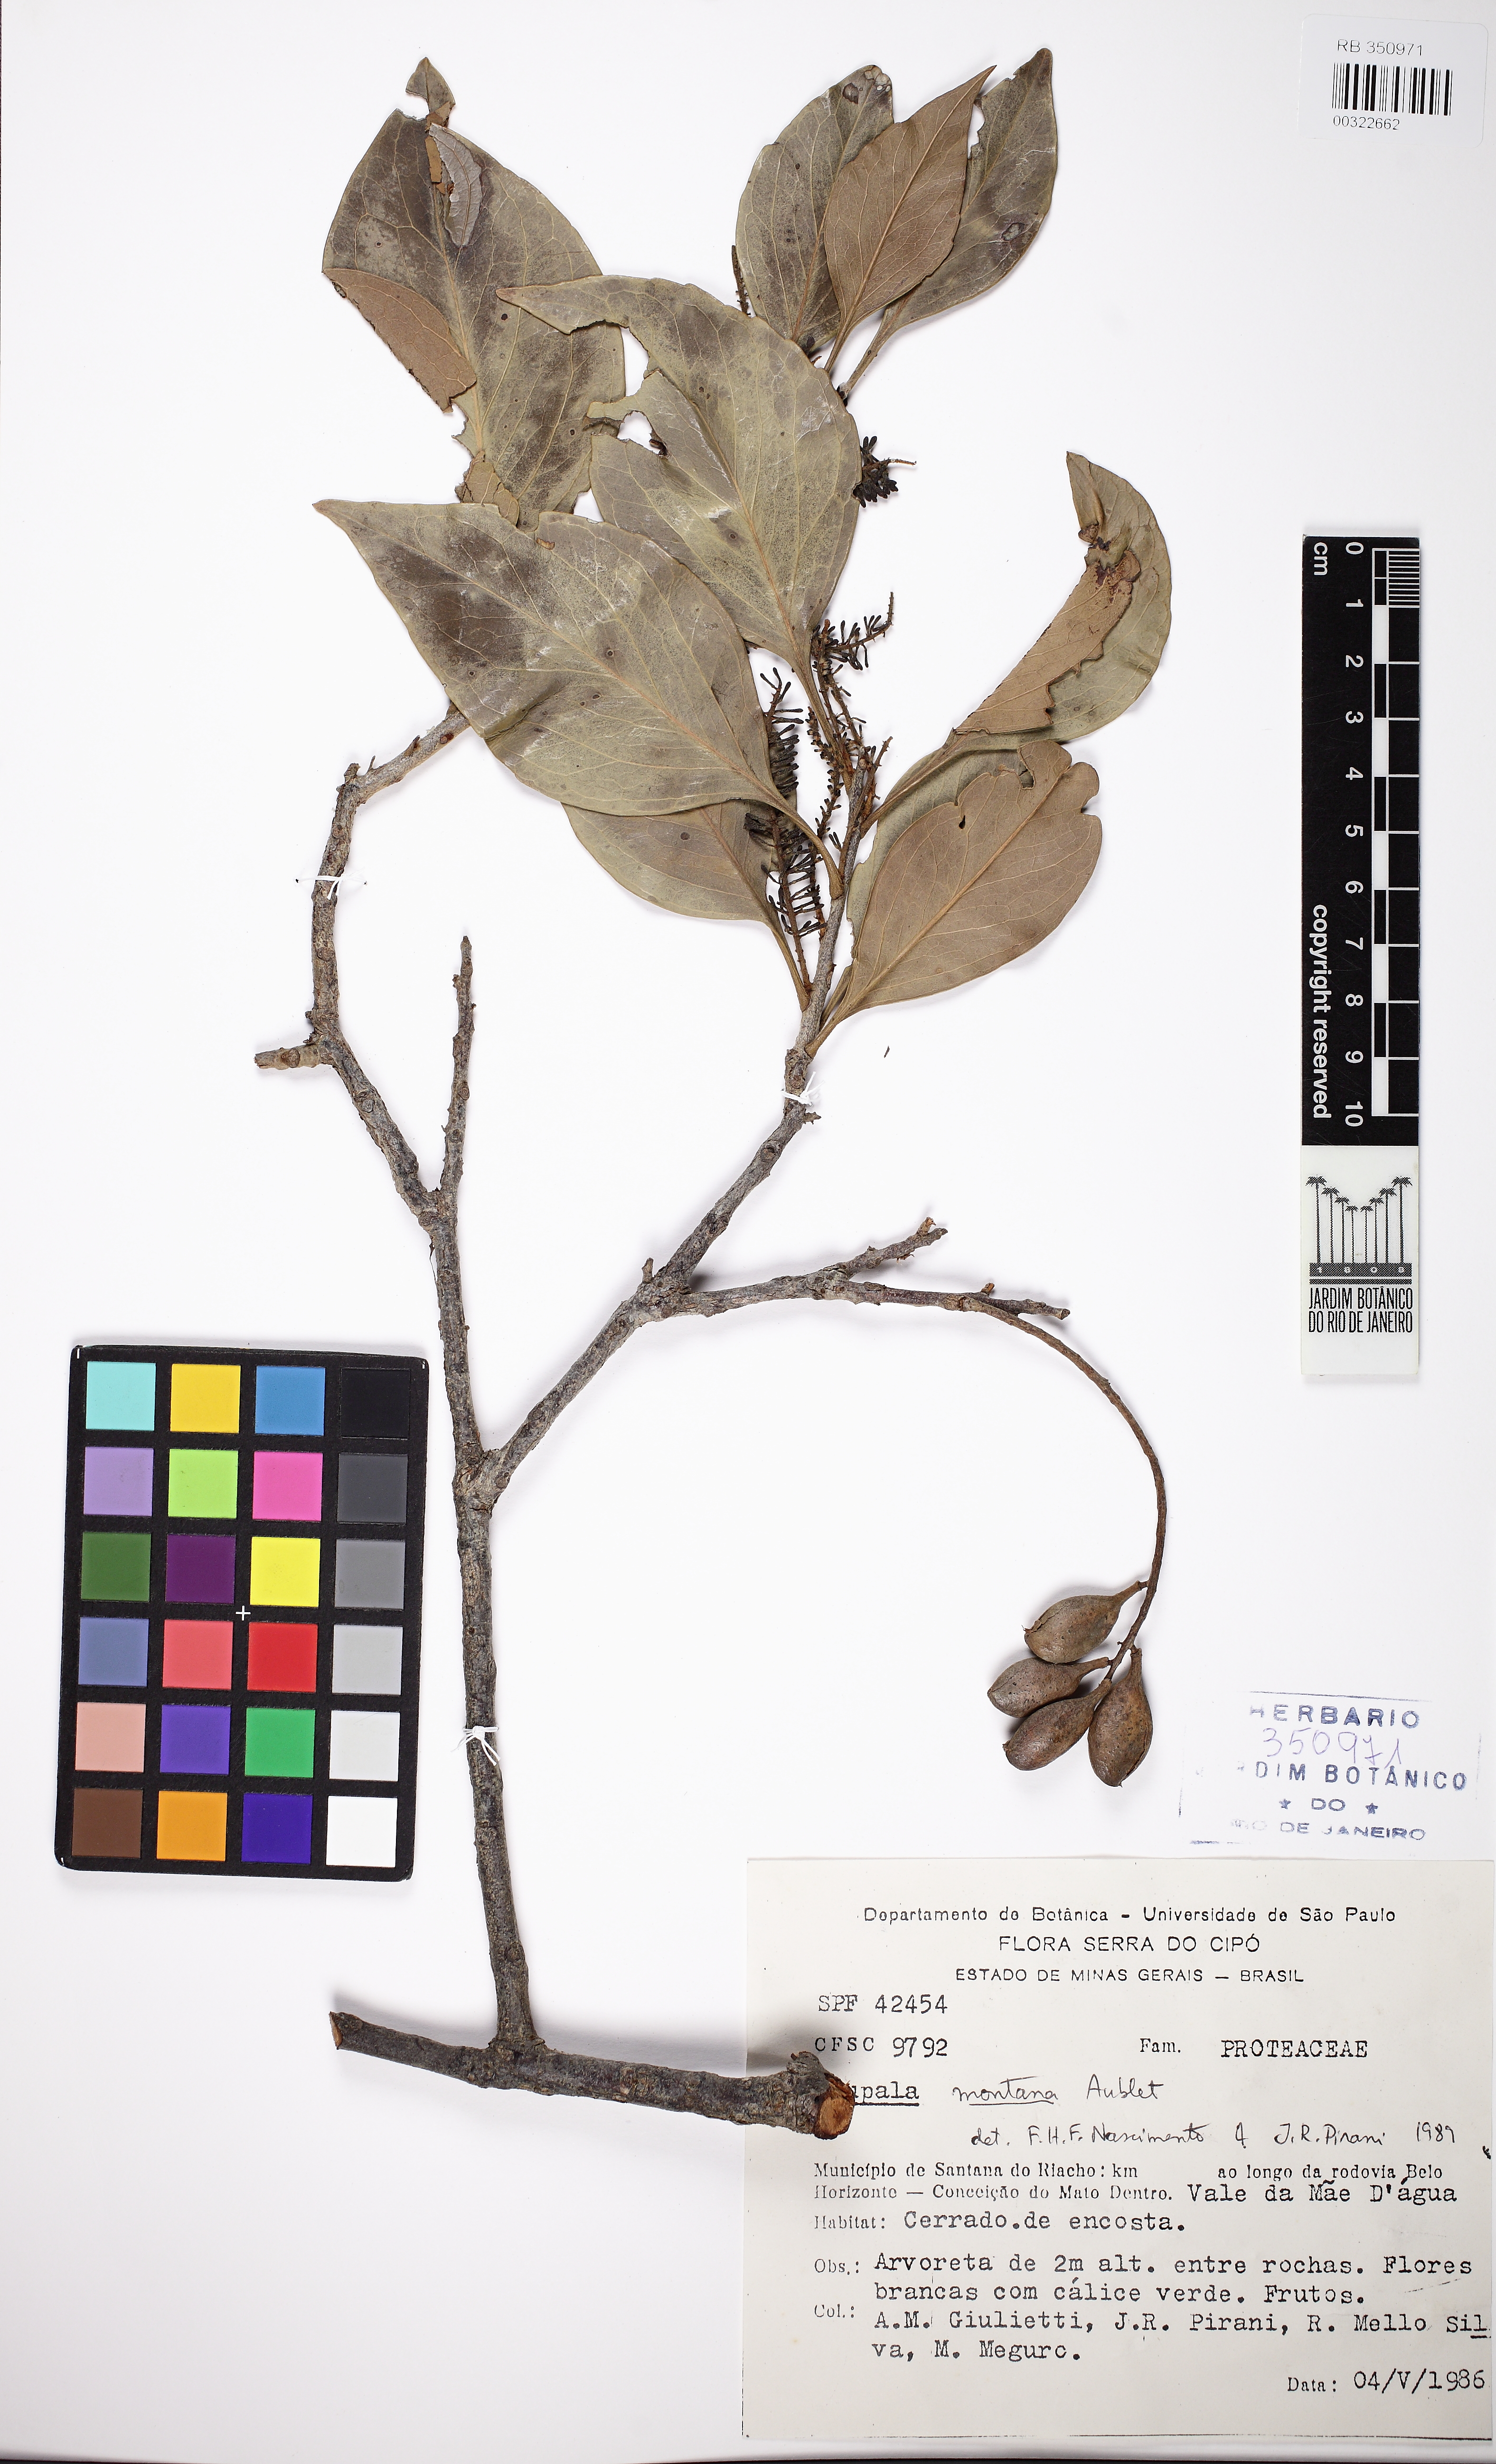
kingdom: Plantae
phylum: Tracheophyta
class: Magnoliopsida
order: Proteales
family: Proteaceae
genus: Roupala
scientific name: Roupala montana
